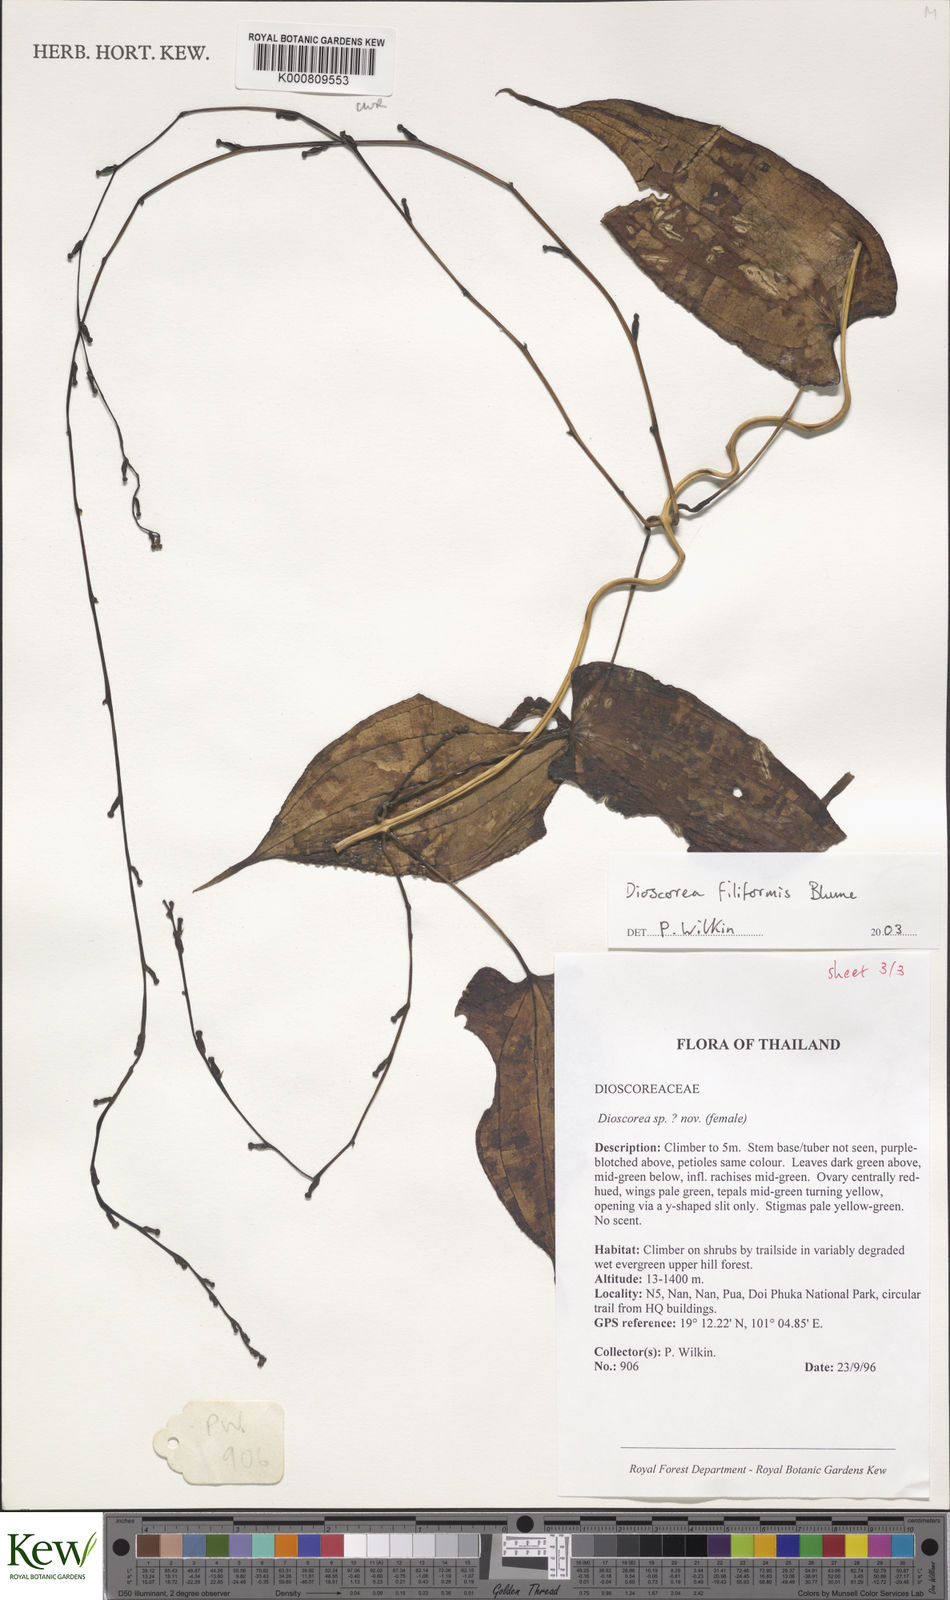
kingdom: Plantae
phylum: Tracheophyta
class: Liliopsida
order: Dioscoreales
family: Dioscoreaceae
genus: Dioscorea
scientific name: Dioscorea filiformis
